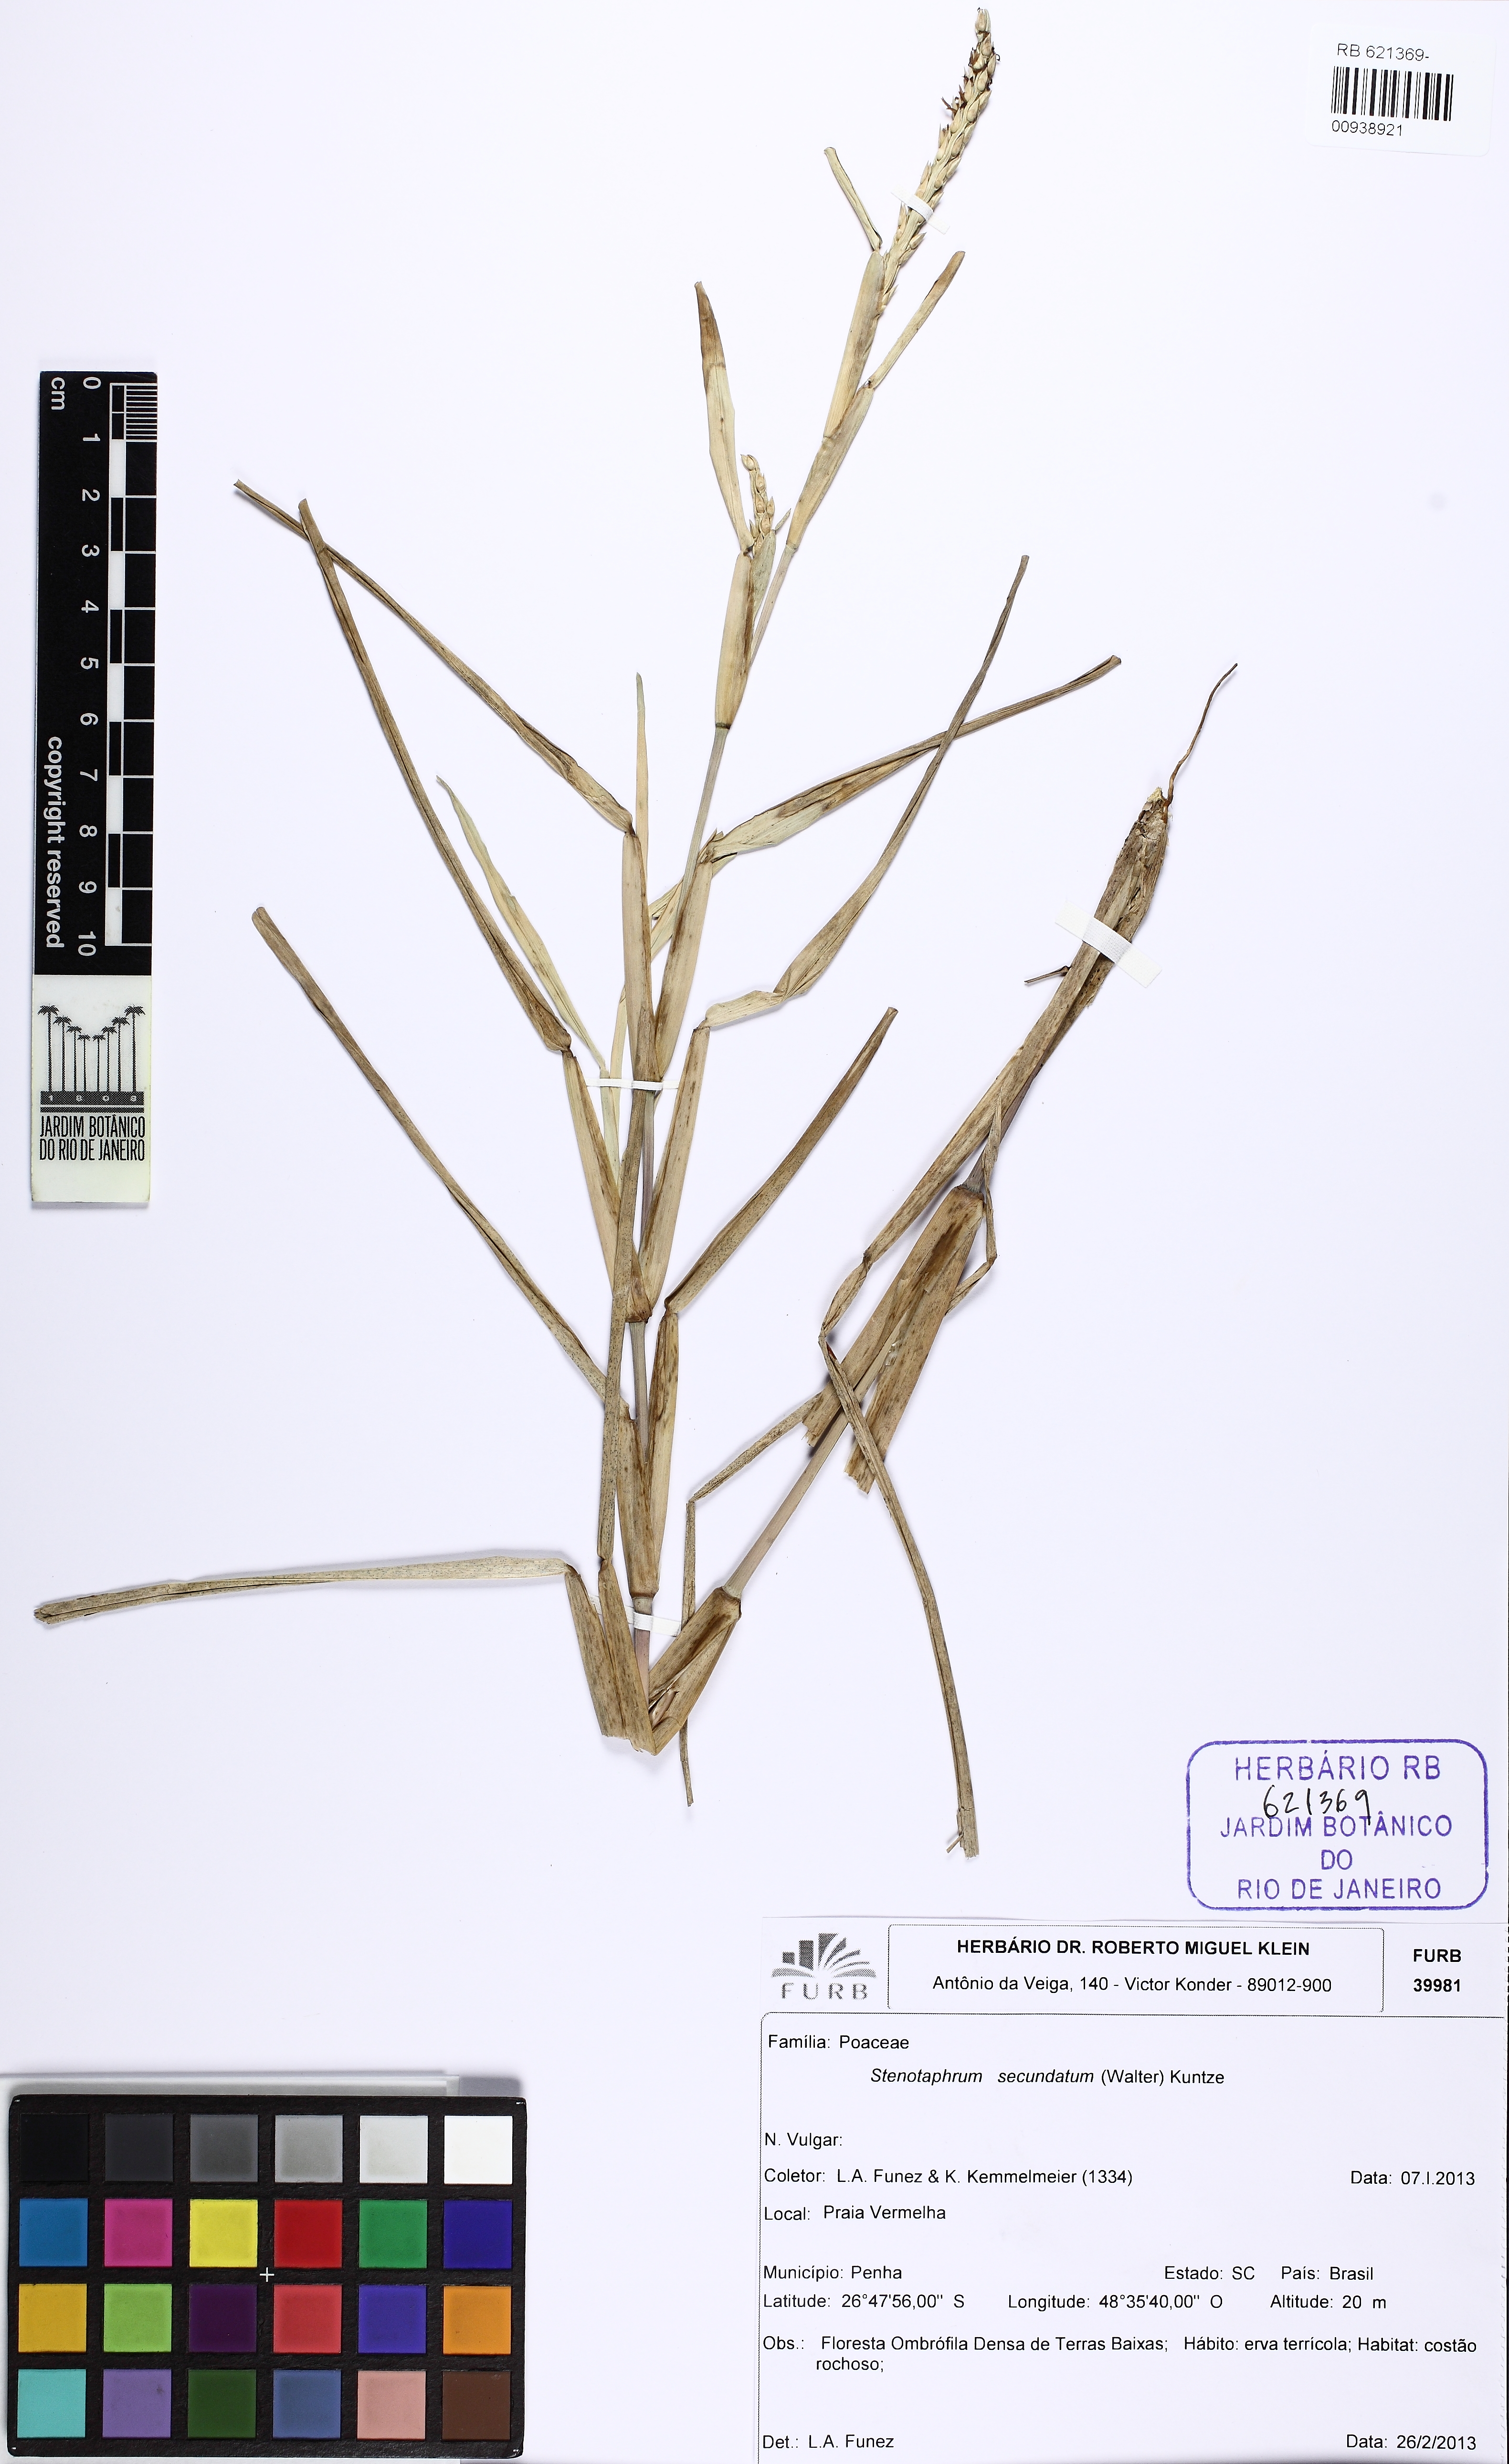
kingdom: Plantae
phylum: Tracheophyta
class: Liliopsida
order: Poales
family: Poaceae
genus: Stenotaphrum
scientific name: Stenotaphrum secundatum
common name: St. augustine grass
